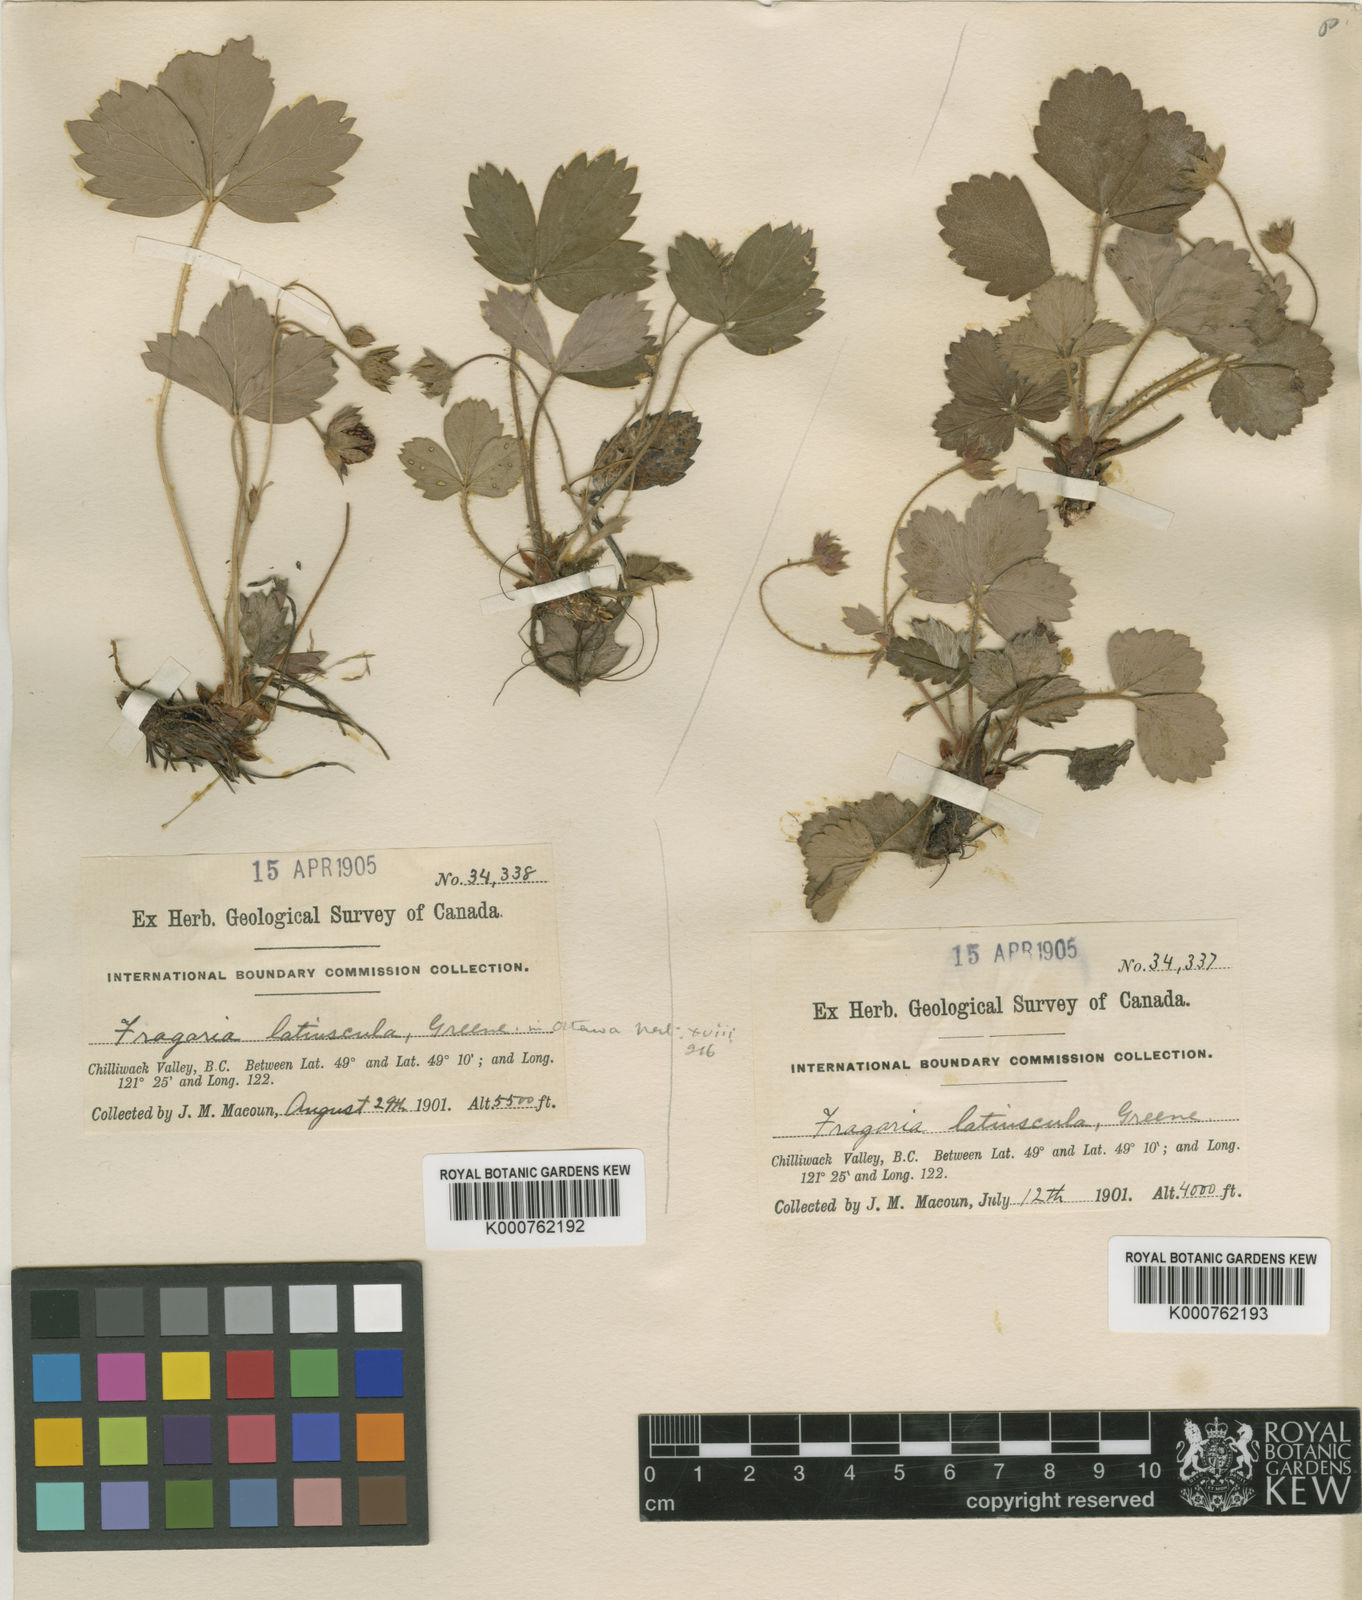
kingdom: Plantae
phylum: Tracheophyta
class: Magnoliopsida
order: Rosales
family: Rosaceae
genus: Fragaria
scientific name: Fragaria vesca
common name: Wild strawberry
